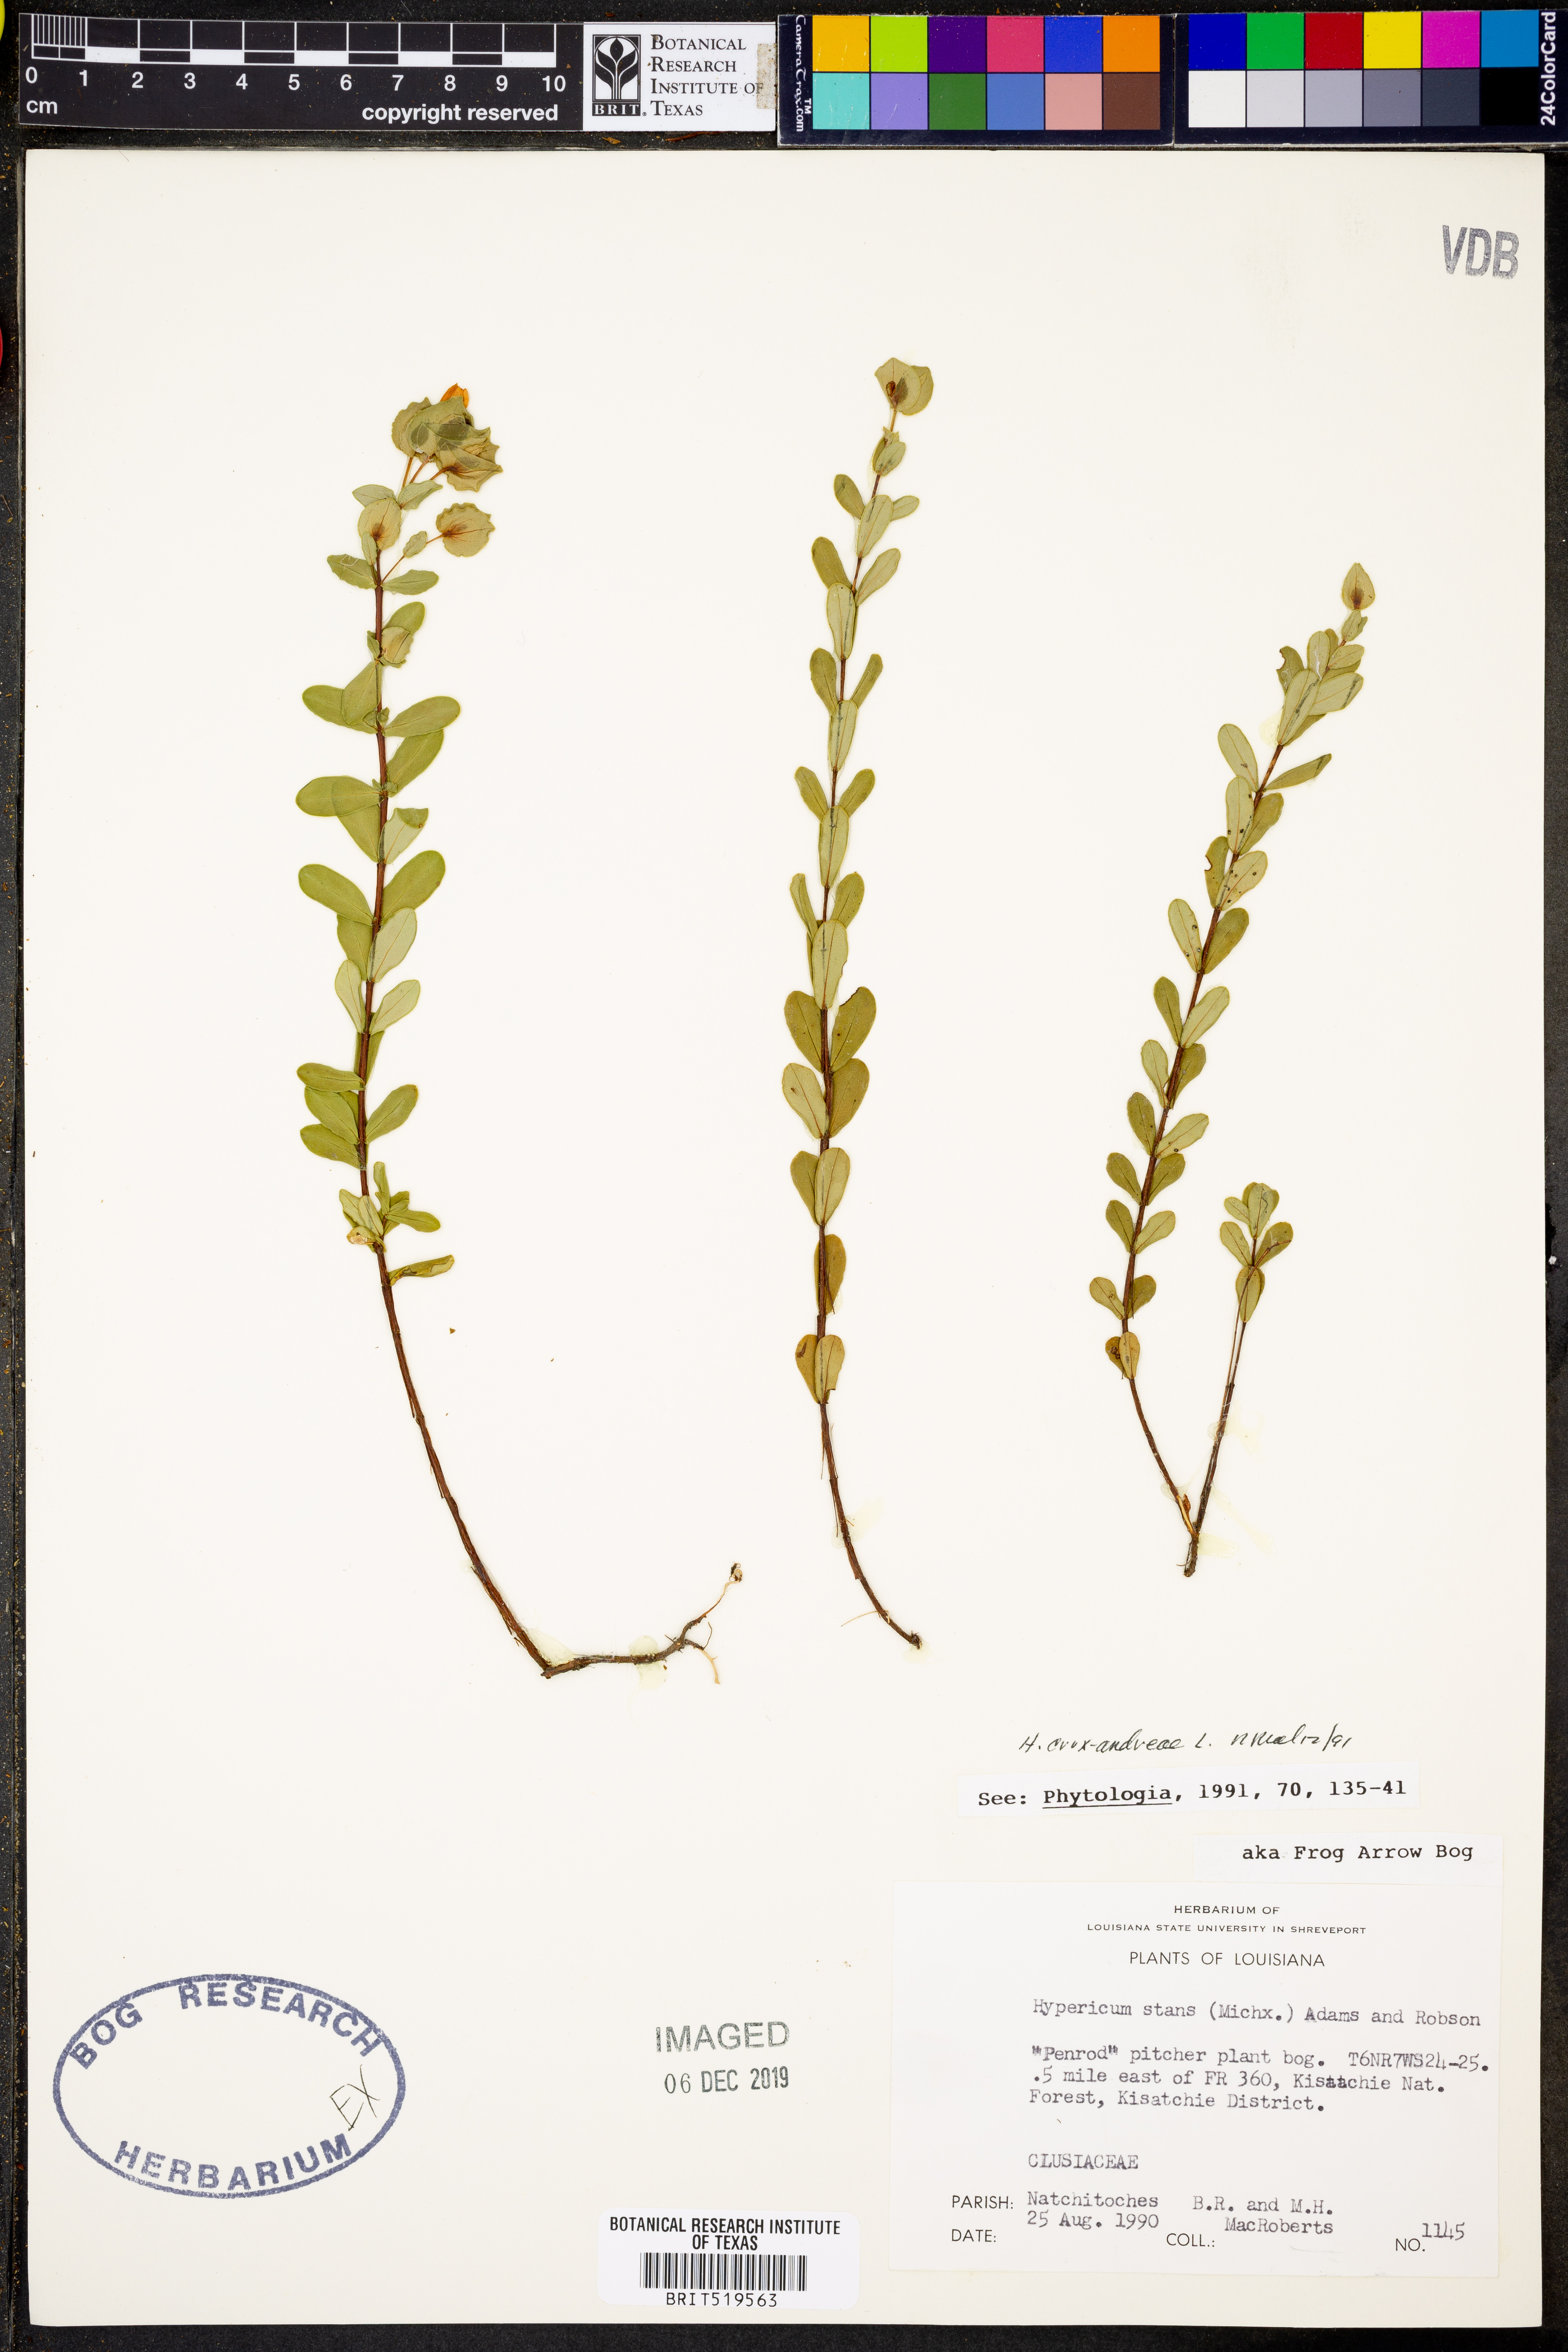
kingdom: Plantae
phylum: Tracheophyta
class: Magnoliopsida
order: Malpighiales
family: Hypericaceae
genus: Hypericum
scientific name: Hypericum crux-andreae
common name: St.-peter's-wort
